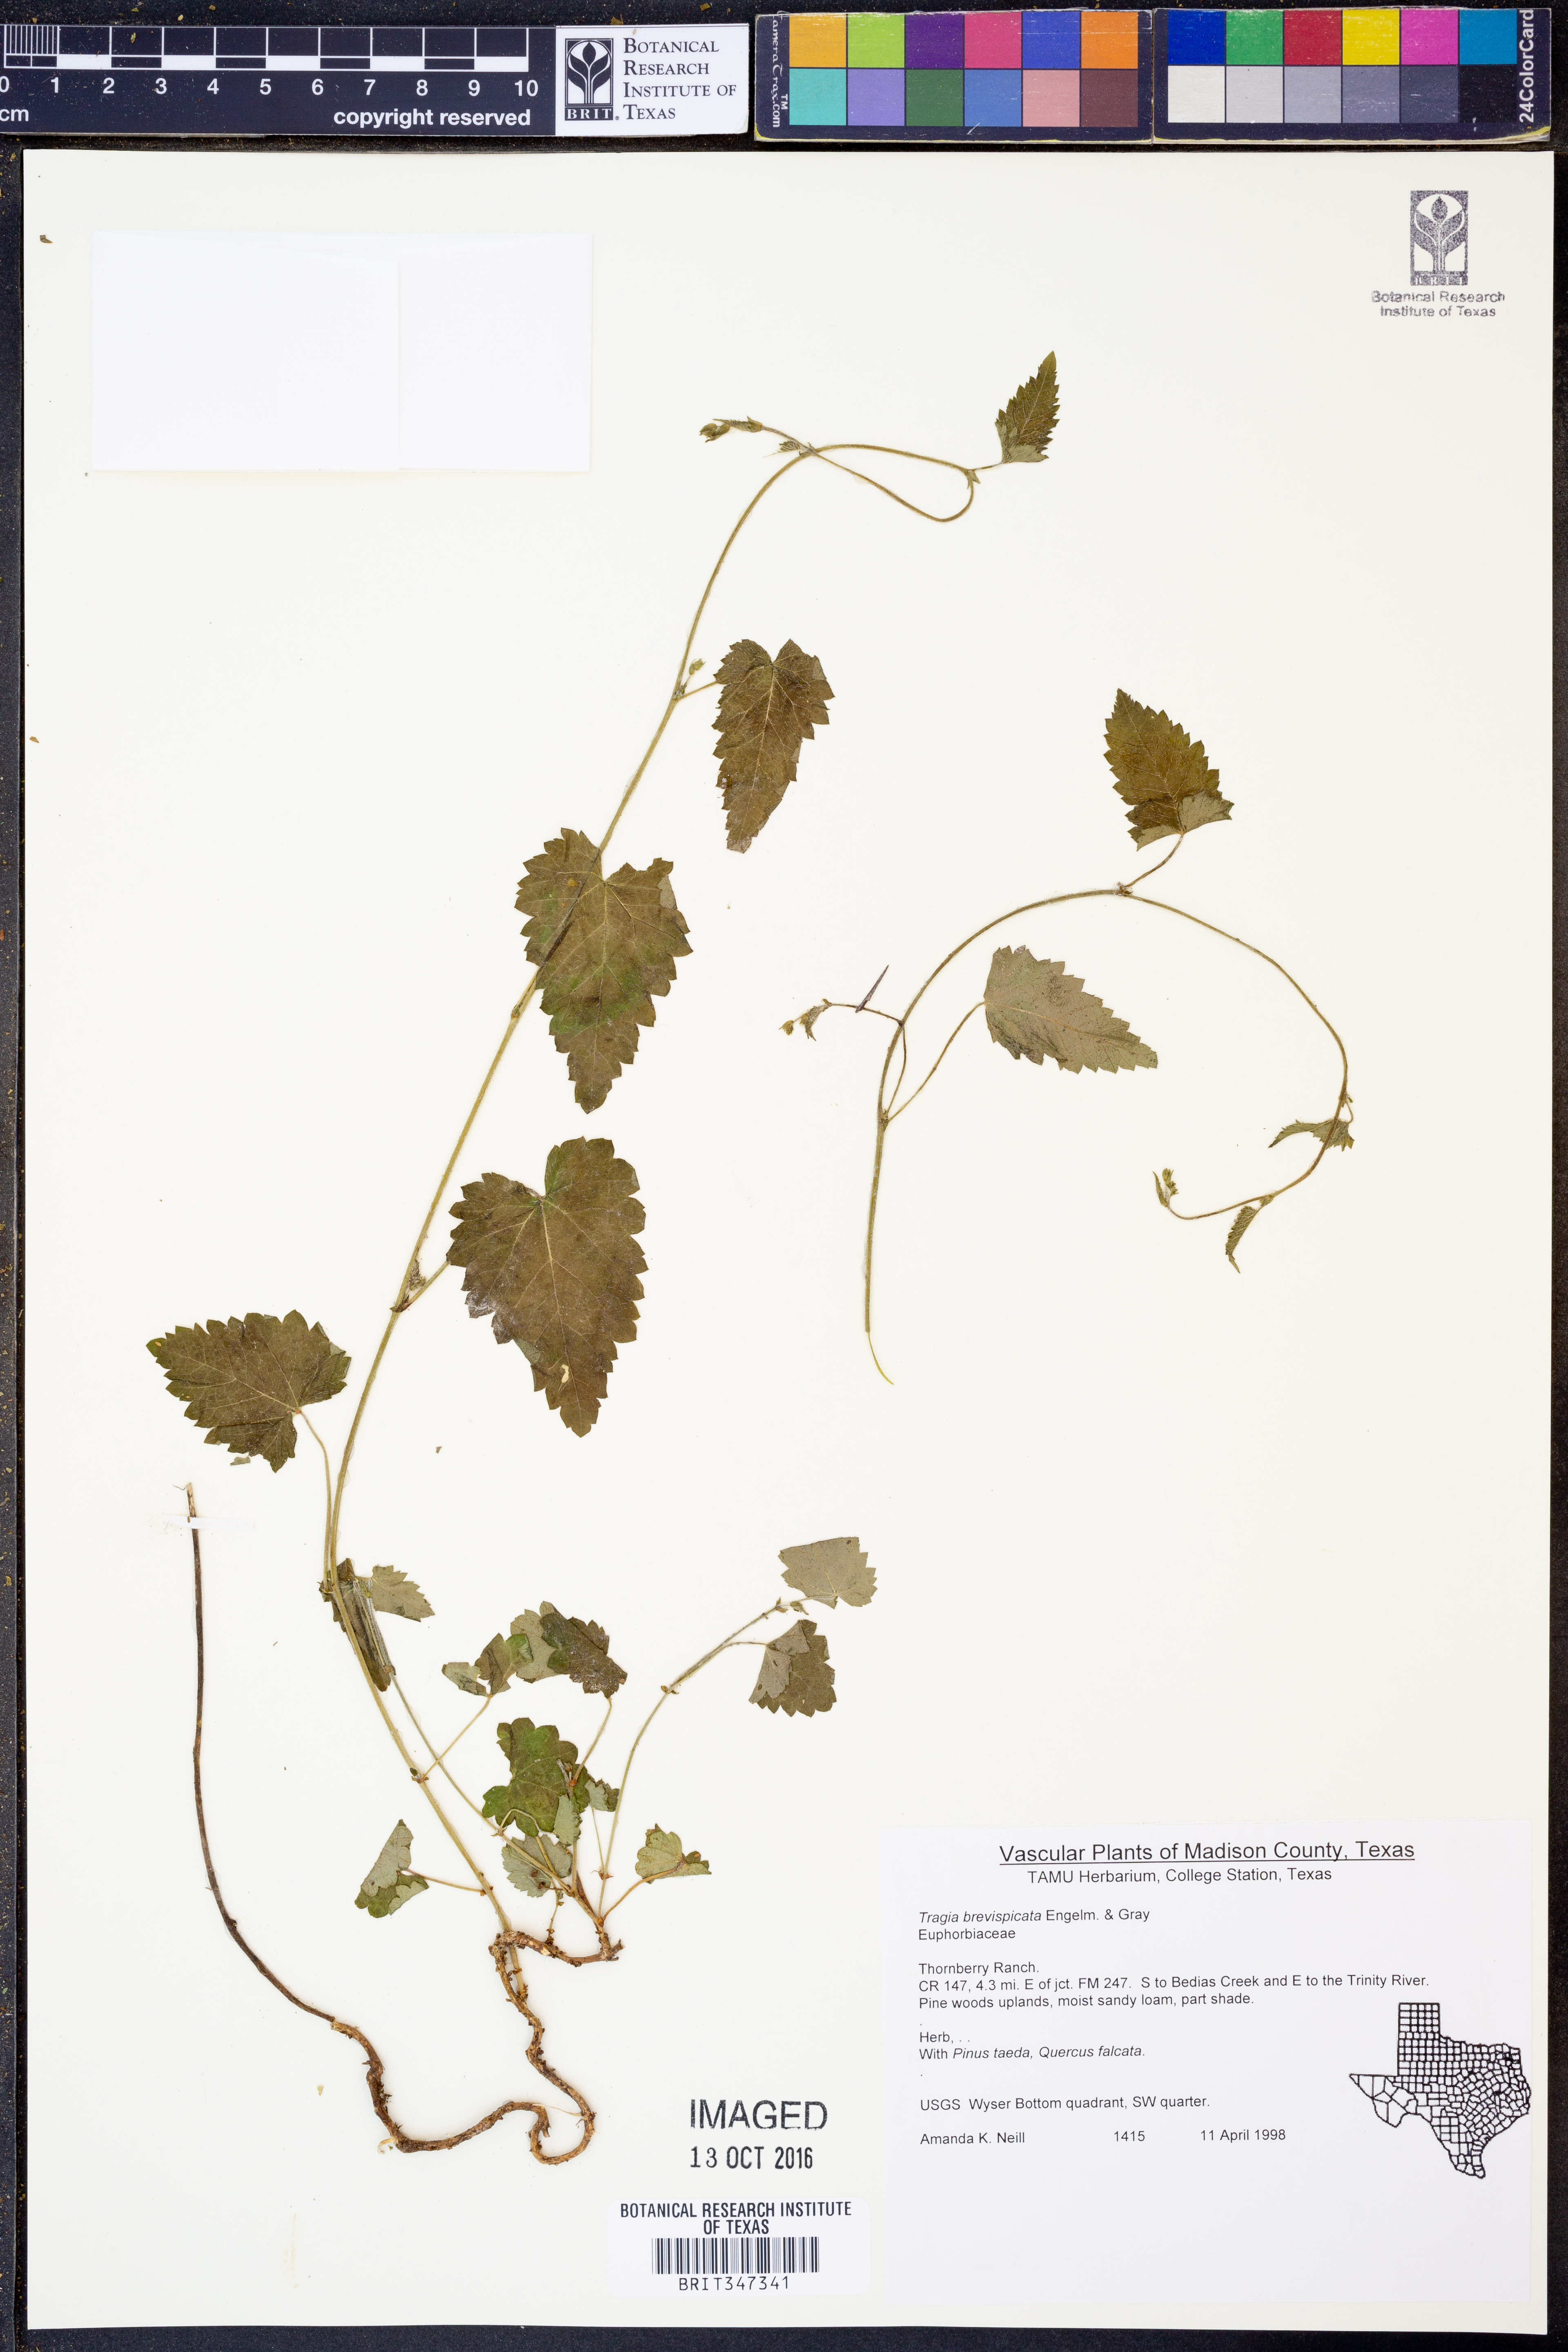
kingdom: Plantae
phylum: Tracheophyta
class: Magnoliopsida
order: Malpighiales
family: Euphorbiaceae
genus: Tragia
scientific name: Tragia brevispica
